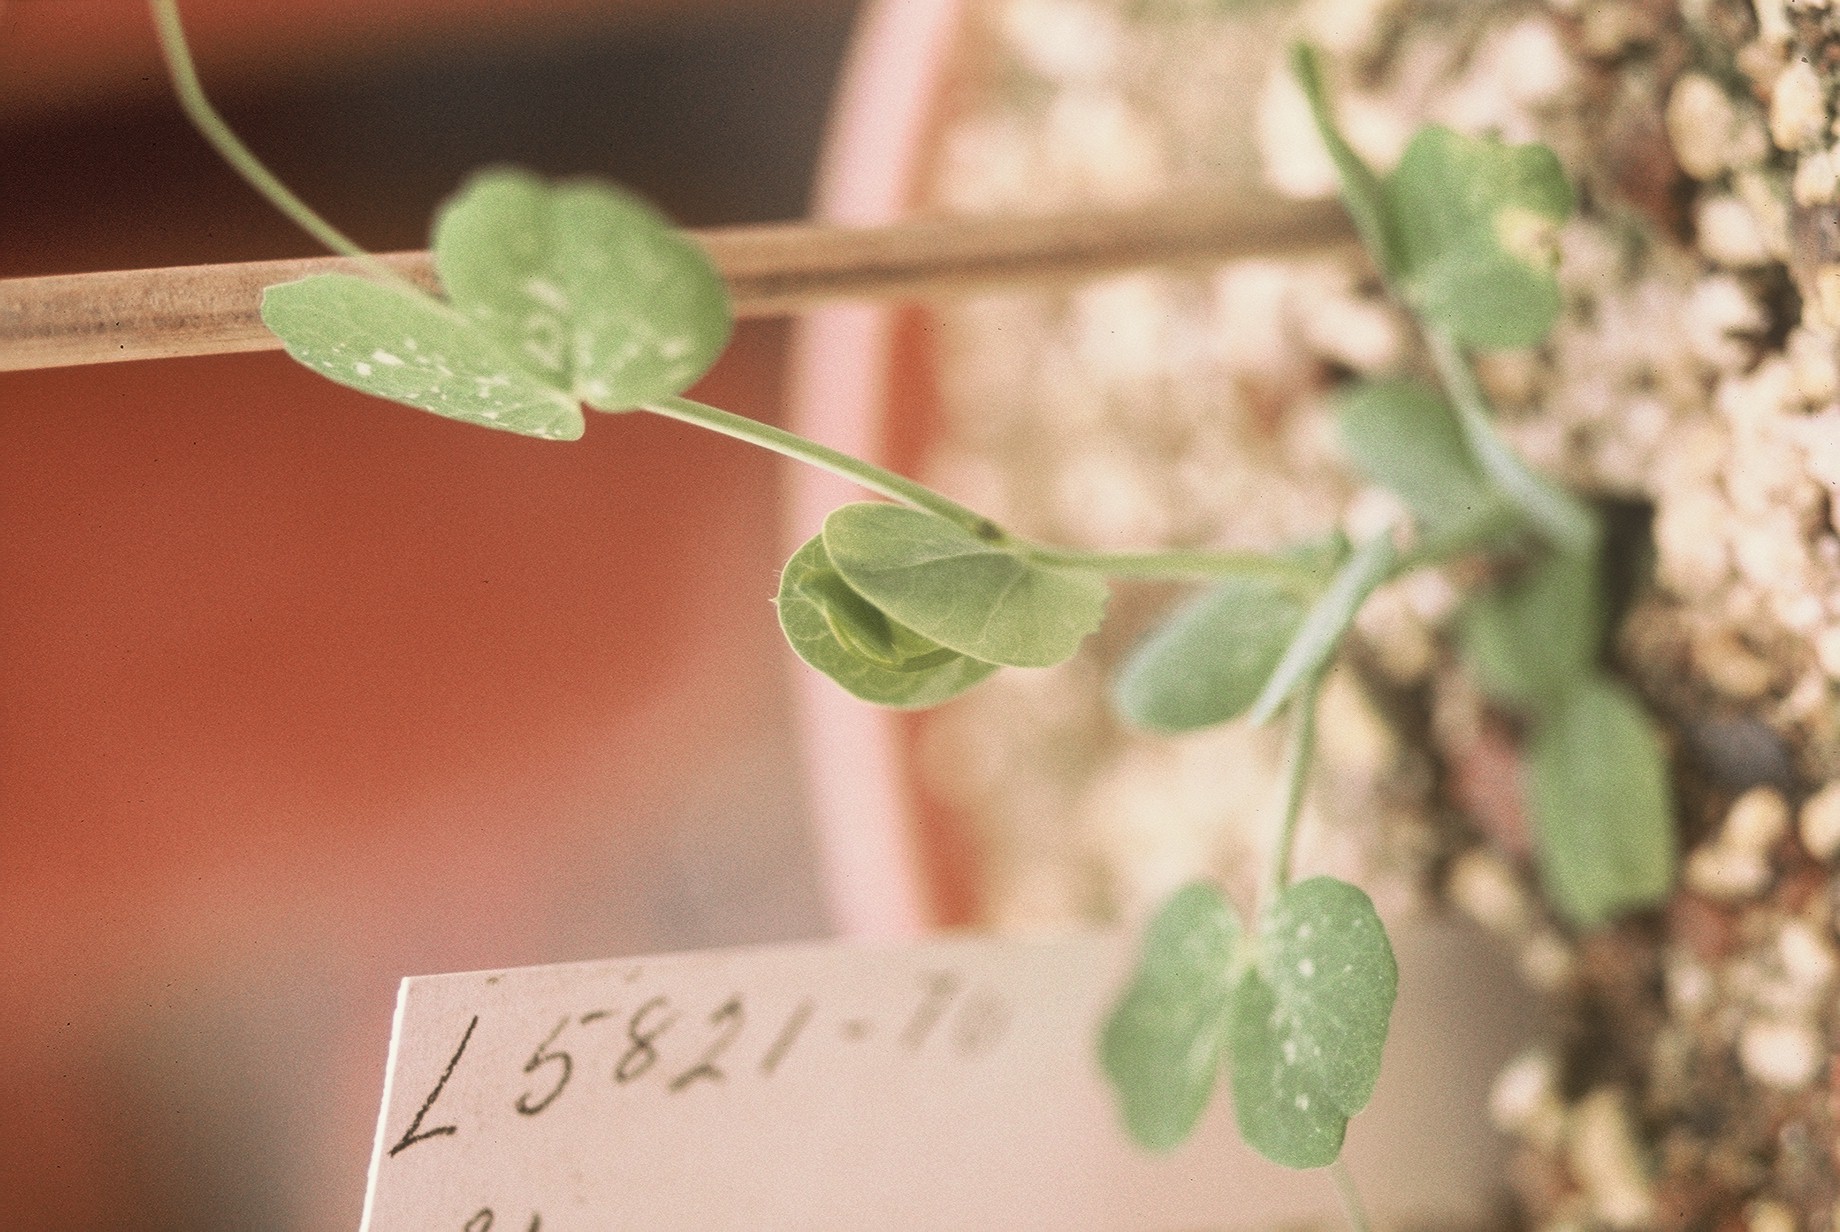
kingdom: Plantae
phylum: Tracheophyta
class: Magnoliopsida
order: Fabales
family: Fabaceae
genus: Lathyrus
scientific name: Lathyrus oleraceus
